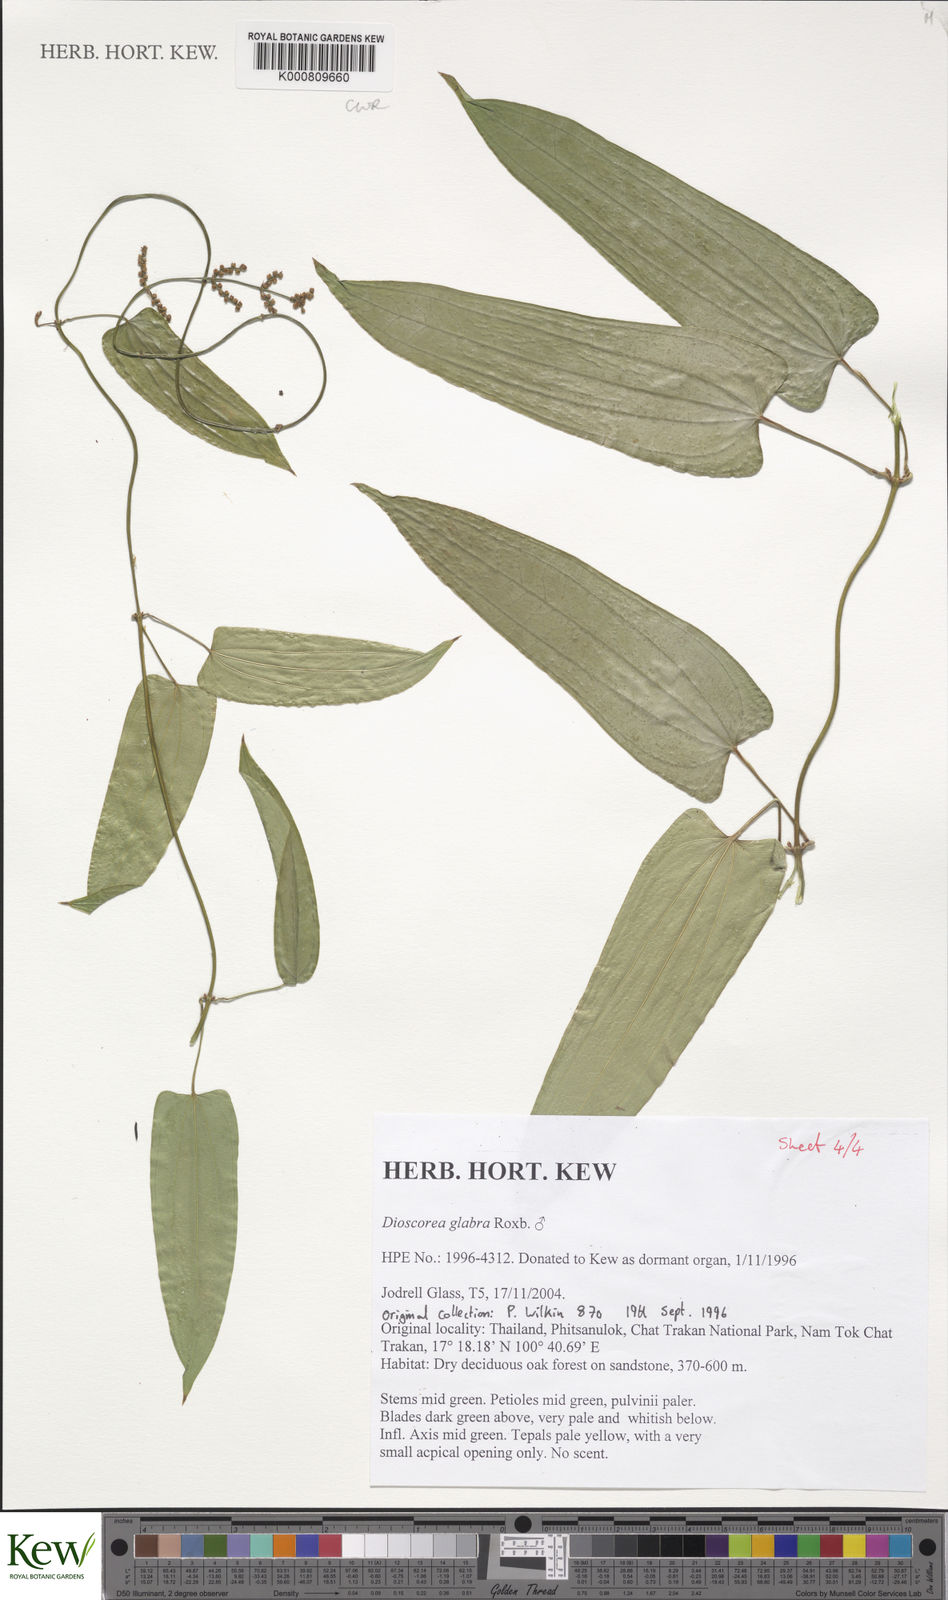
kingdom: Plantae
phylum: Tracheophyta
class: Liliopsida
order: Dioscoreales
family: Dioscoreaceae
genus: Dioscorea
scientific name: Dioscorea glabra
